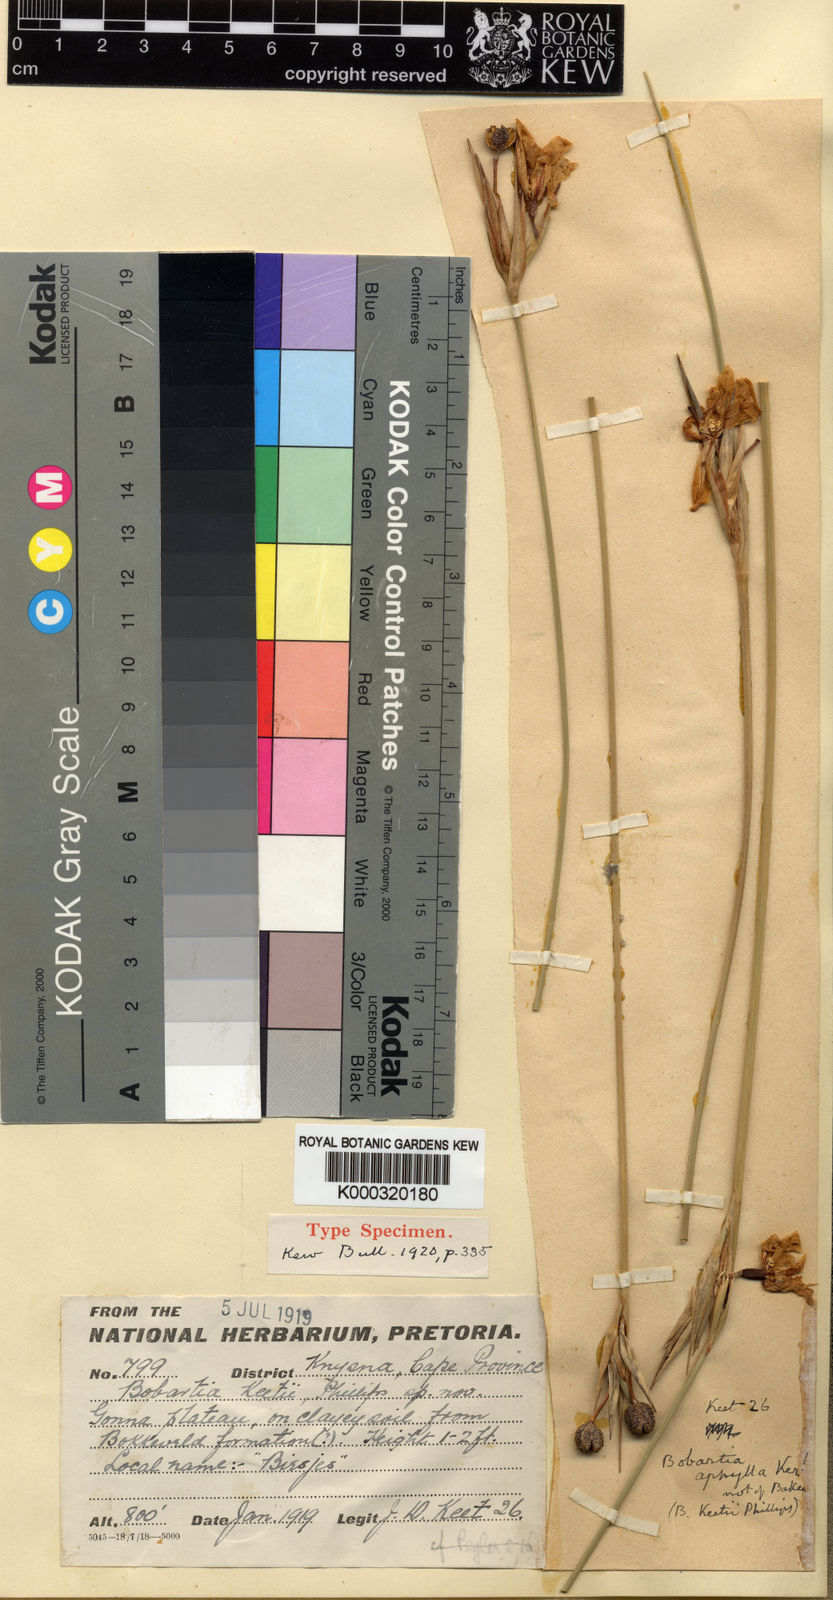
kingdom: Plantae
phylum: Tracheophyta
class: Liliopsida
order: Asparagales
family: Iridaceae
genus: Bobartia
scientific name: Bobartia aphylla
